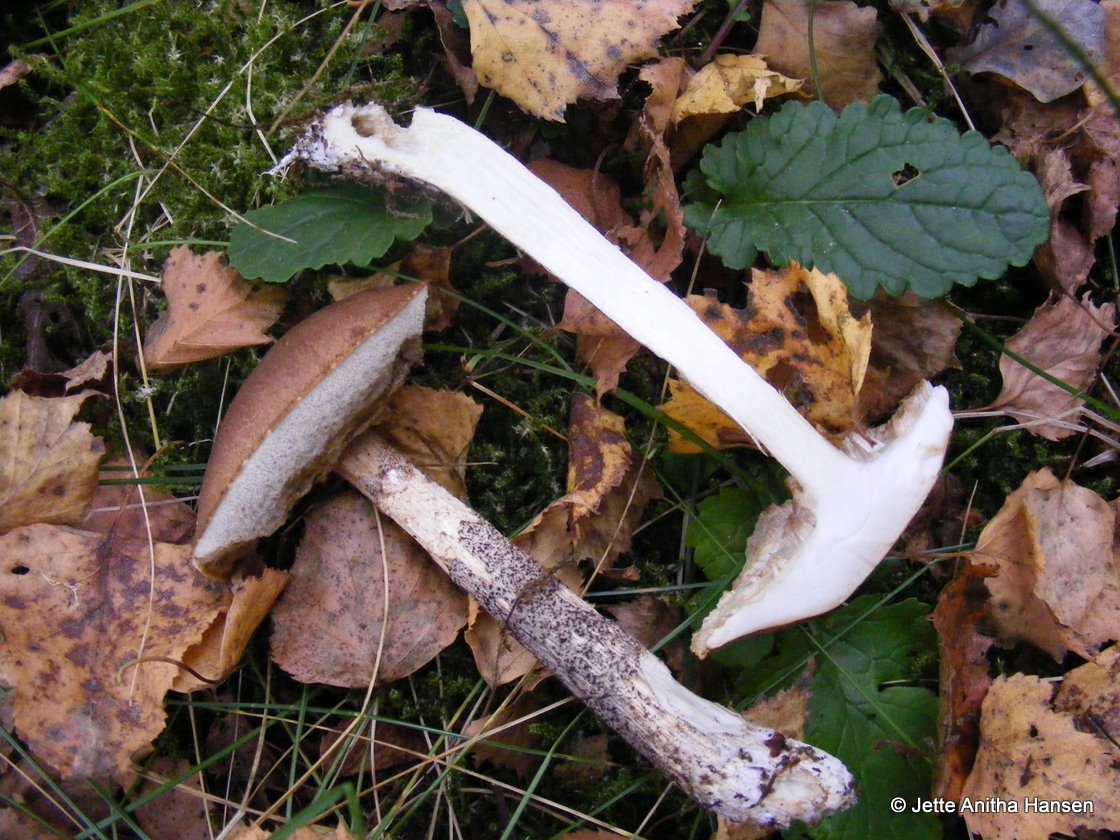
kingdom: Fungi
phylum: Basidiomycota
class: Agaricomycetes
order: Boletales
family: Boletaceae
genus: Leccinum
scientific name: Leccinum scabrum
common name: brun skælrørhat
